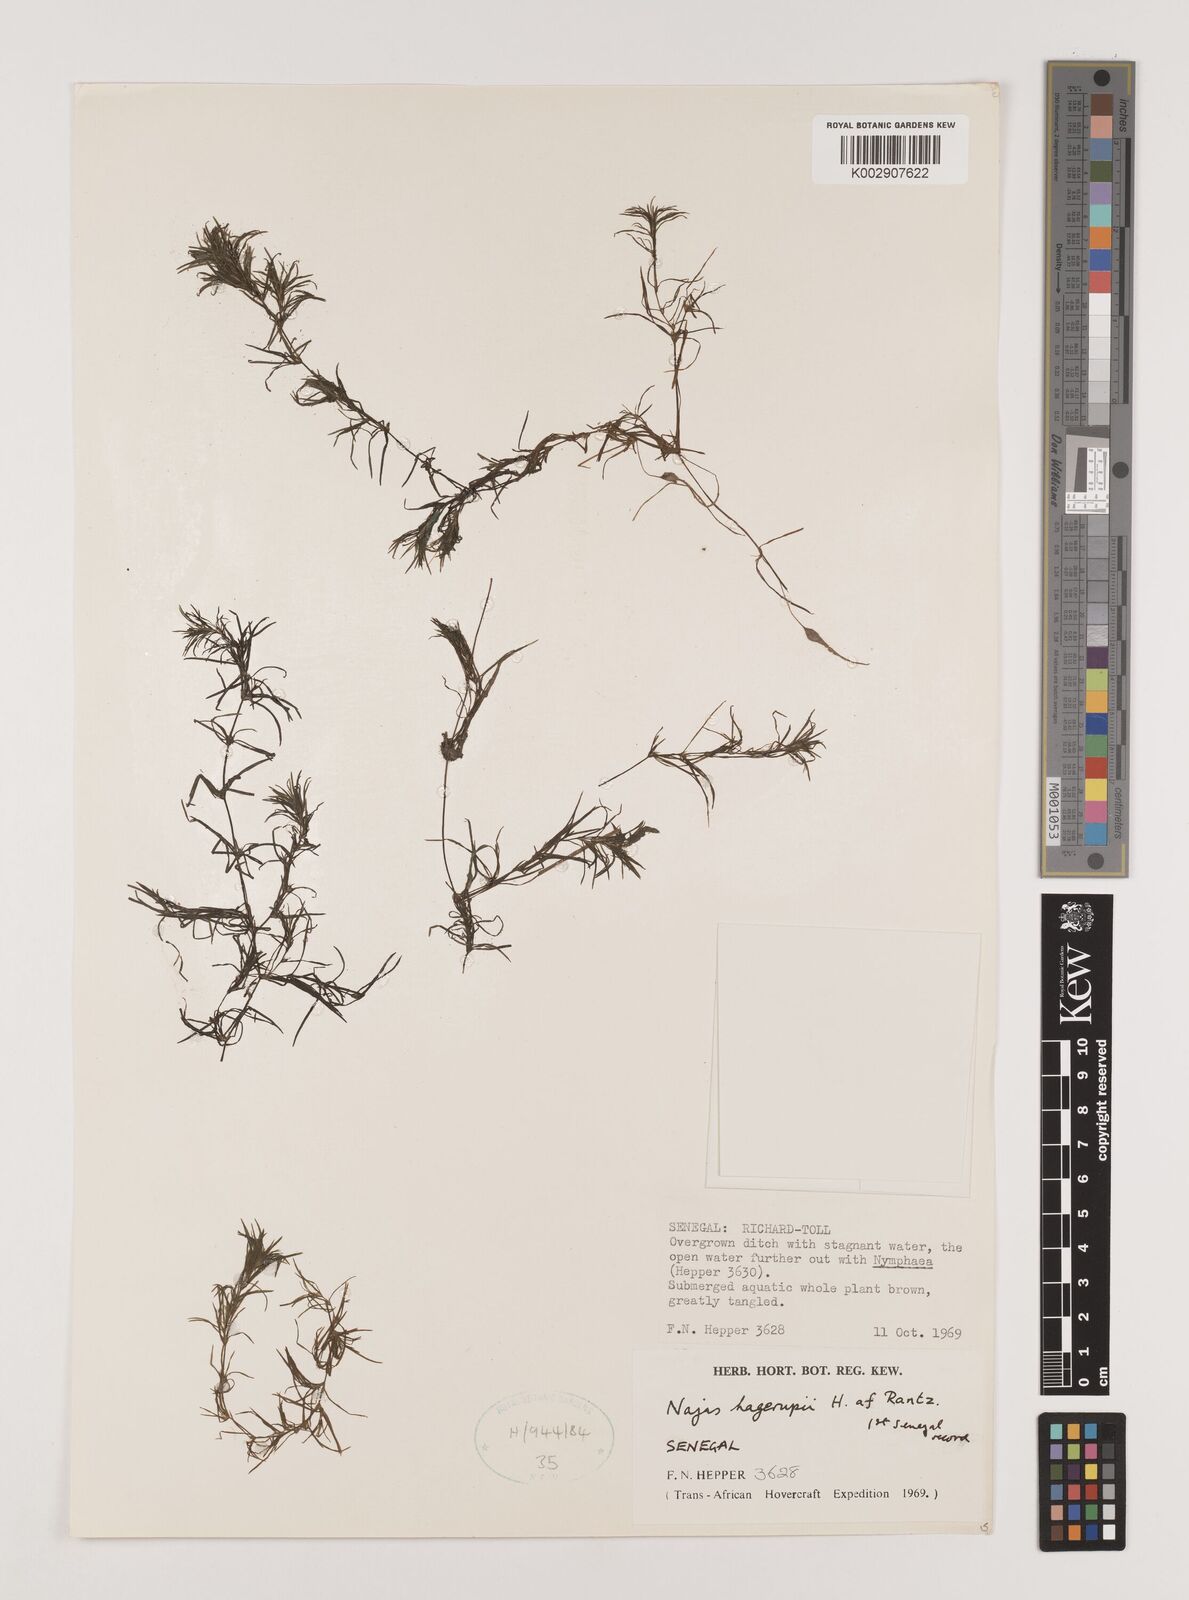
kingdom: Plantae
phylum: Tracheophyta
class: Liliopsida
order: Alismatales
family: Hydrocharitaceae
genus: Najas
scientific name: Najas hagerupii
